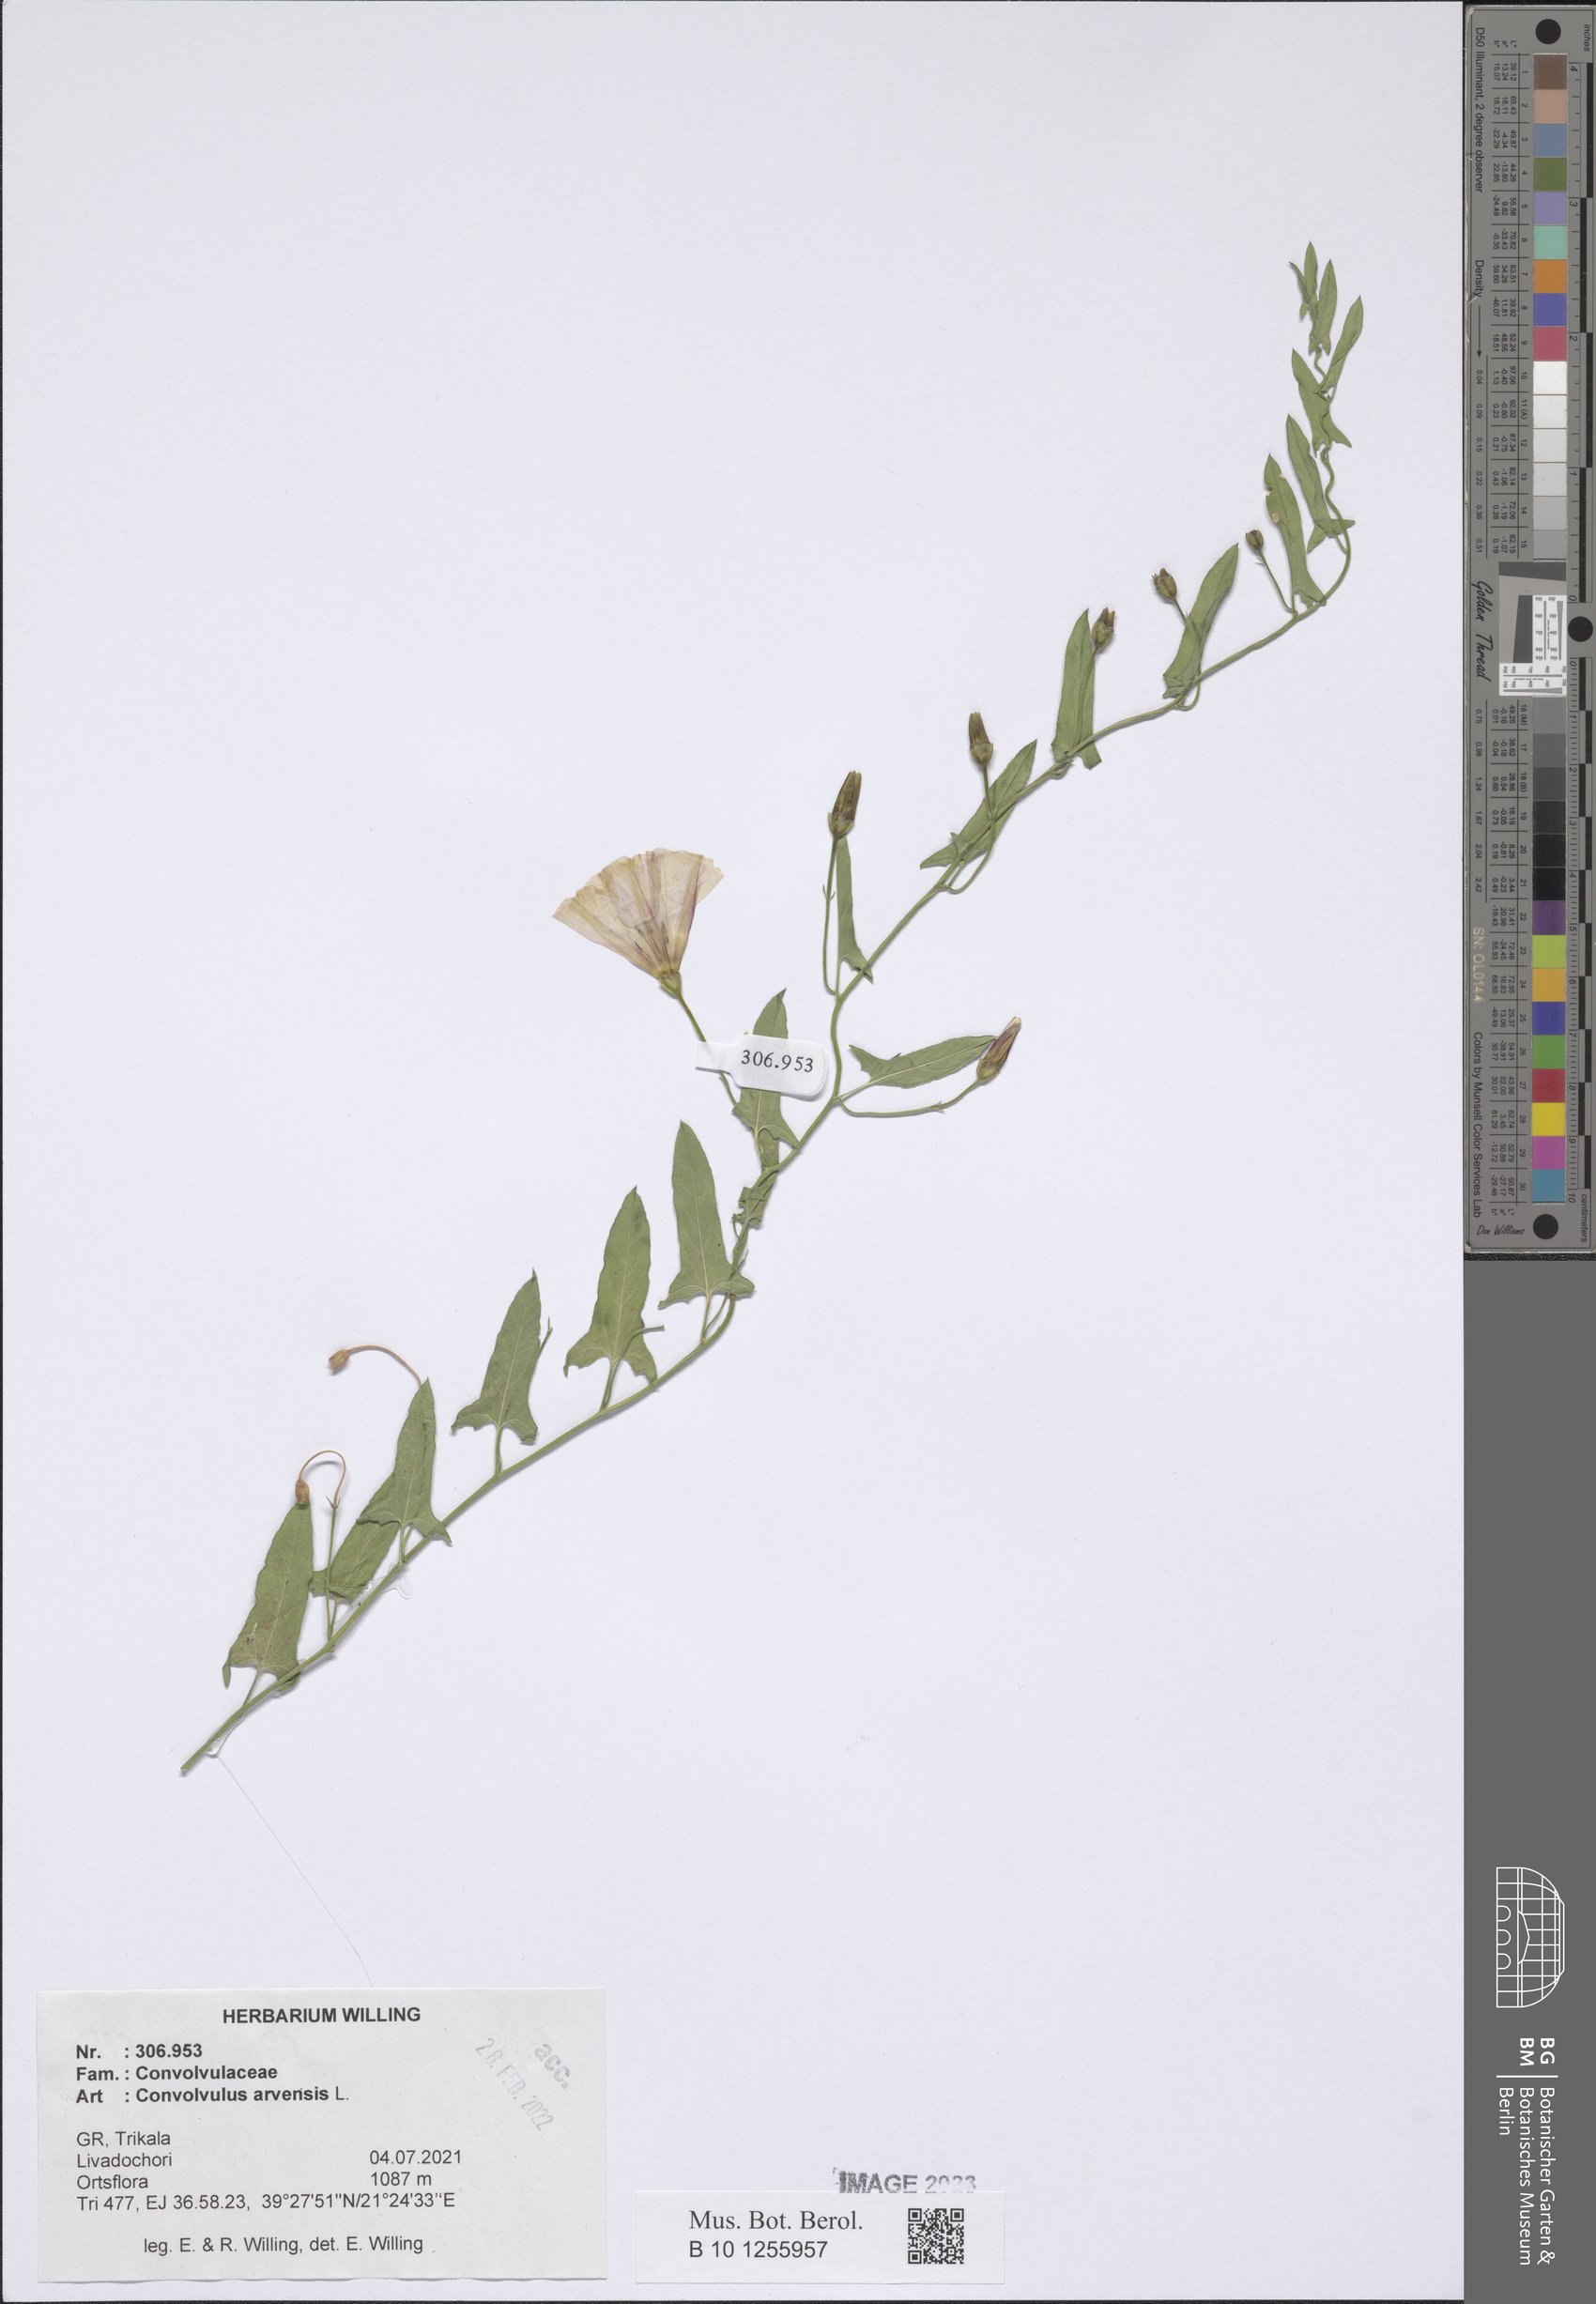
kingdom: Plantae
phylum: Tracheophyta
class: Magnoliopsida
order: Solanales
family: Convolvulaceae
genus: Convolvulus
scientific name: Convolvulus arvensis
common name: Field bindweed
